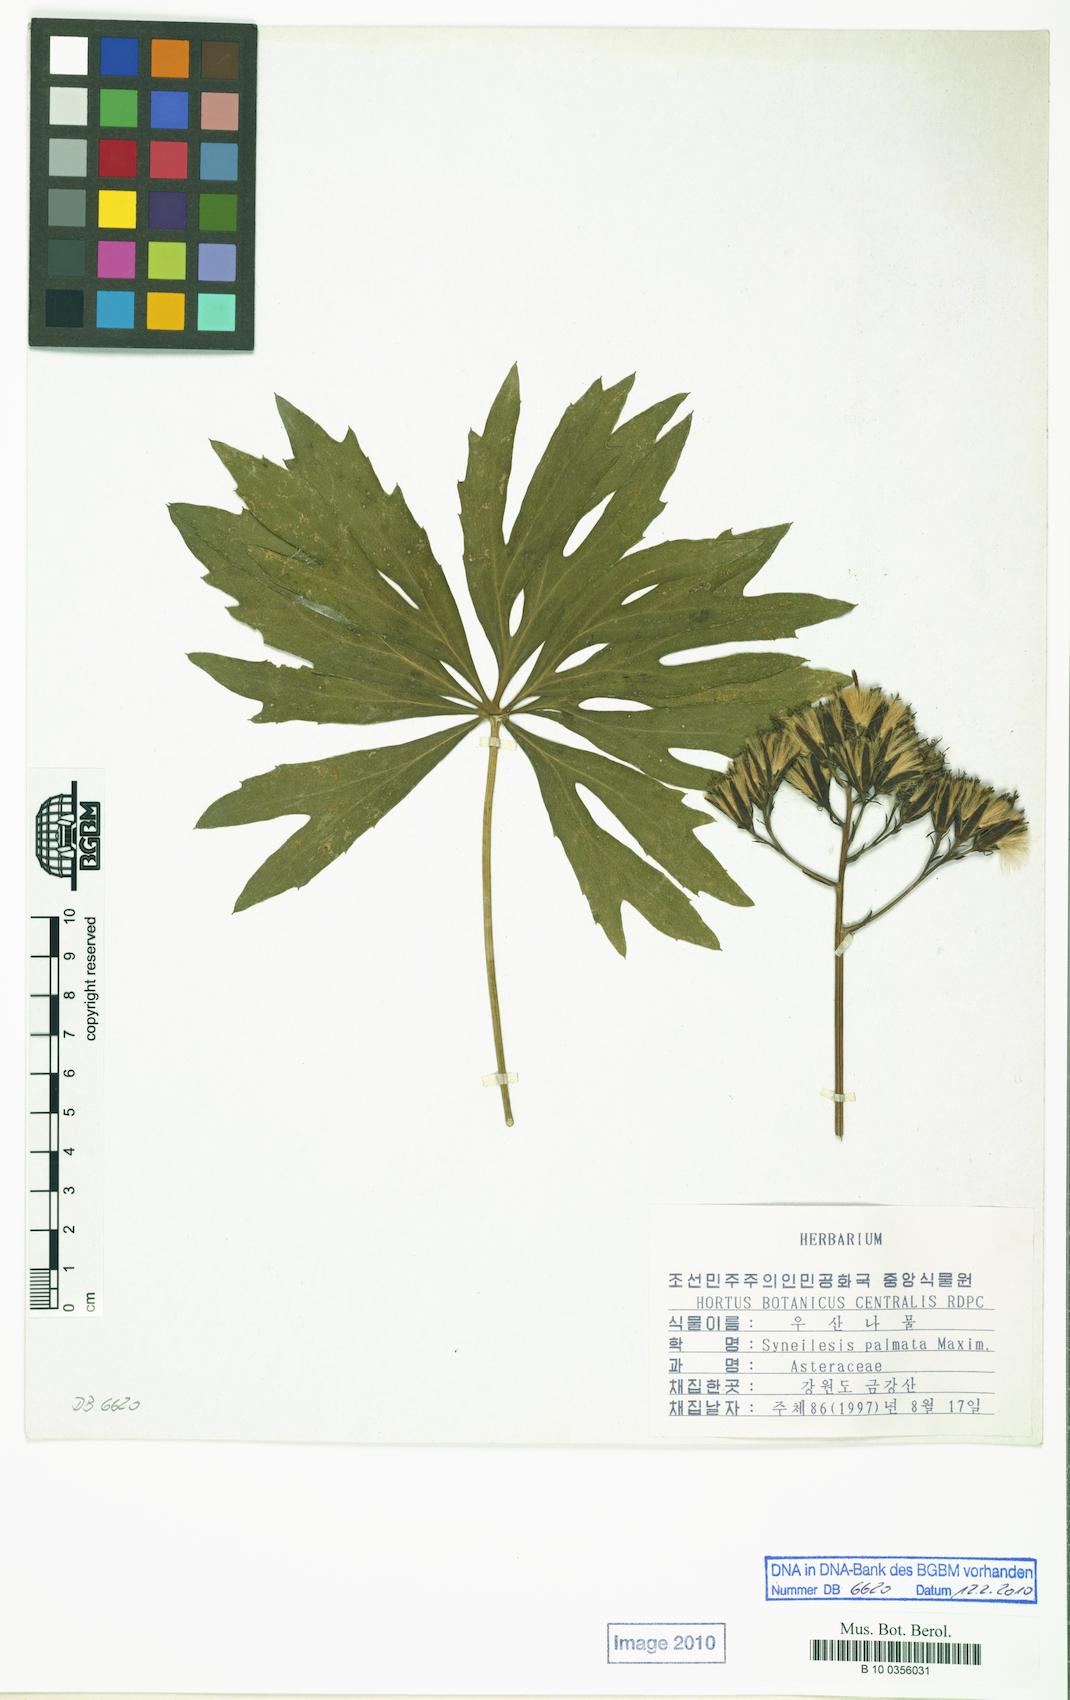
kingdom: Plantae
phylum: Tracheophyta
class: Magnoliopsida
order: Asterales
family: Asteraceae
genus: Syneilesis
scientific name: Syneilesis palmata
